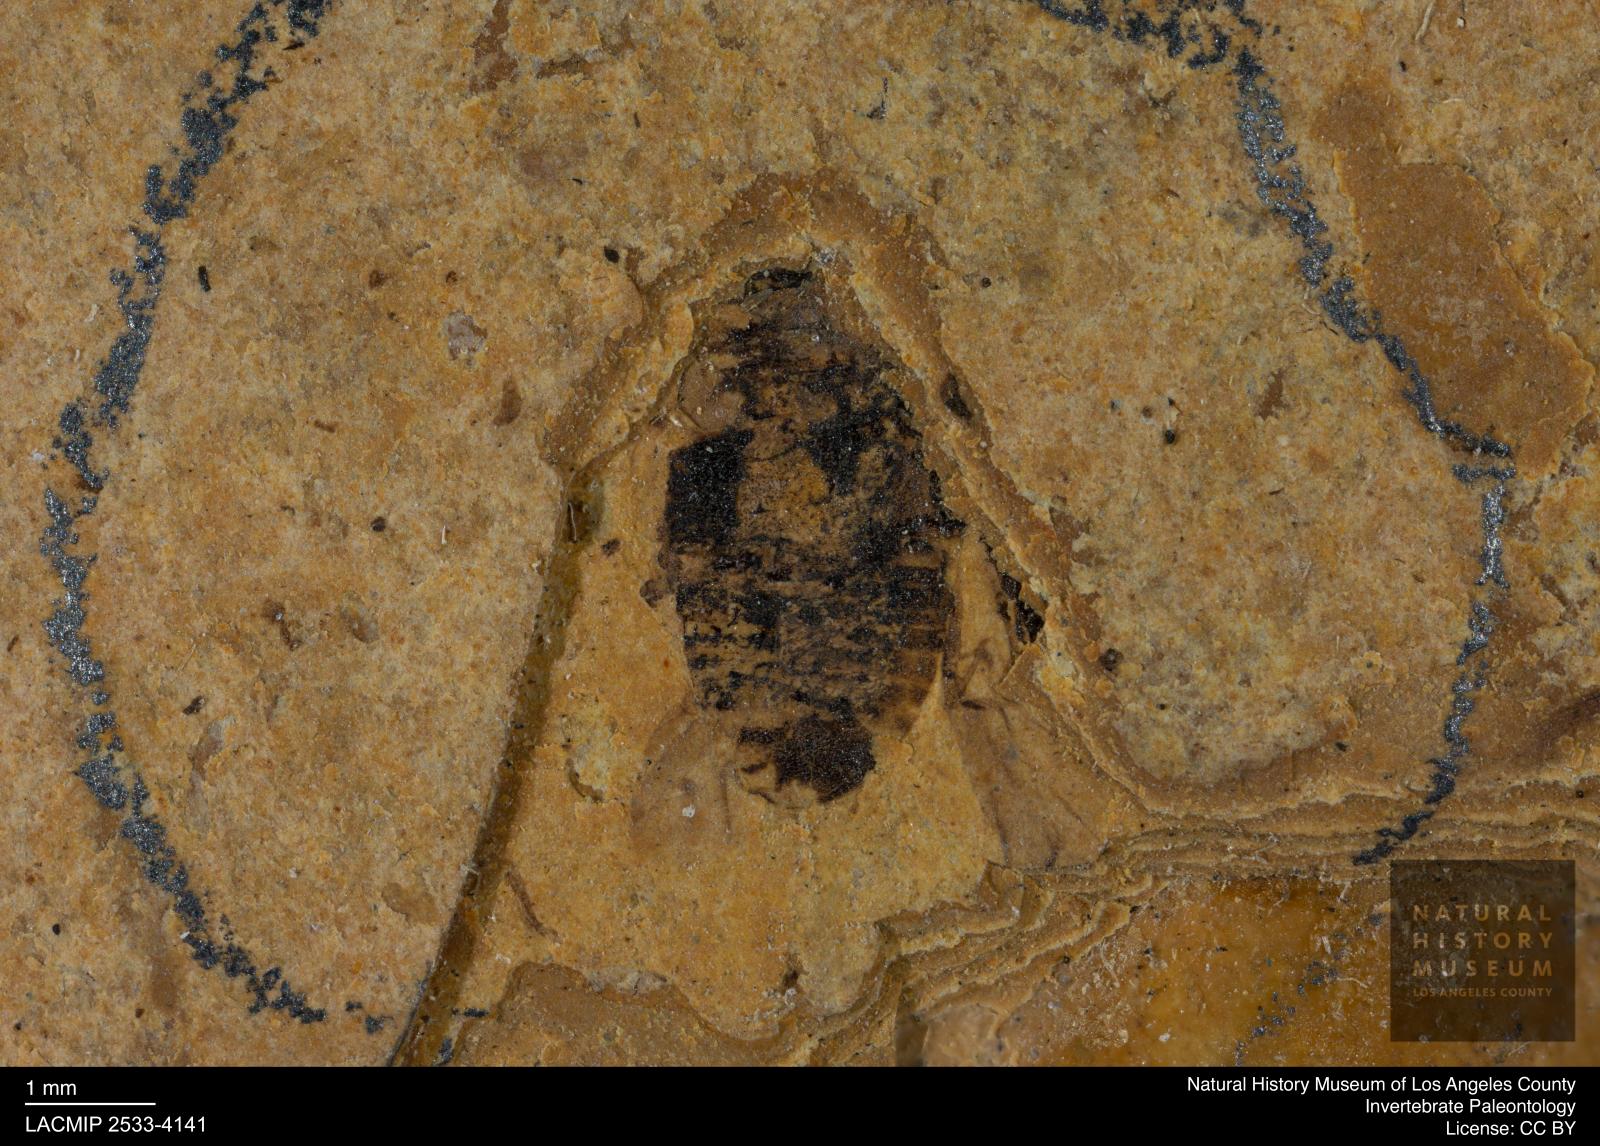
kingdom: Animalia
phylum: Arthropoda
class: Insecta
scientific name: Insecta
